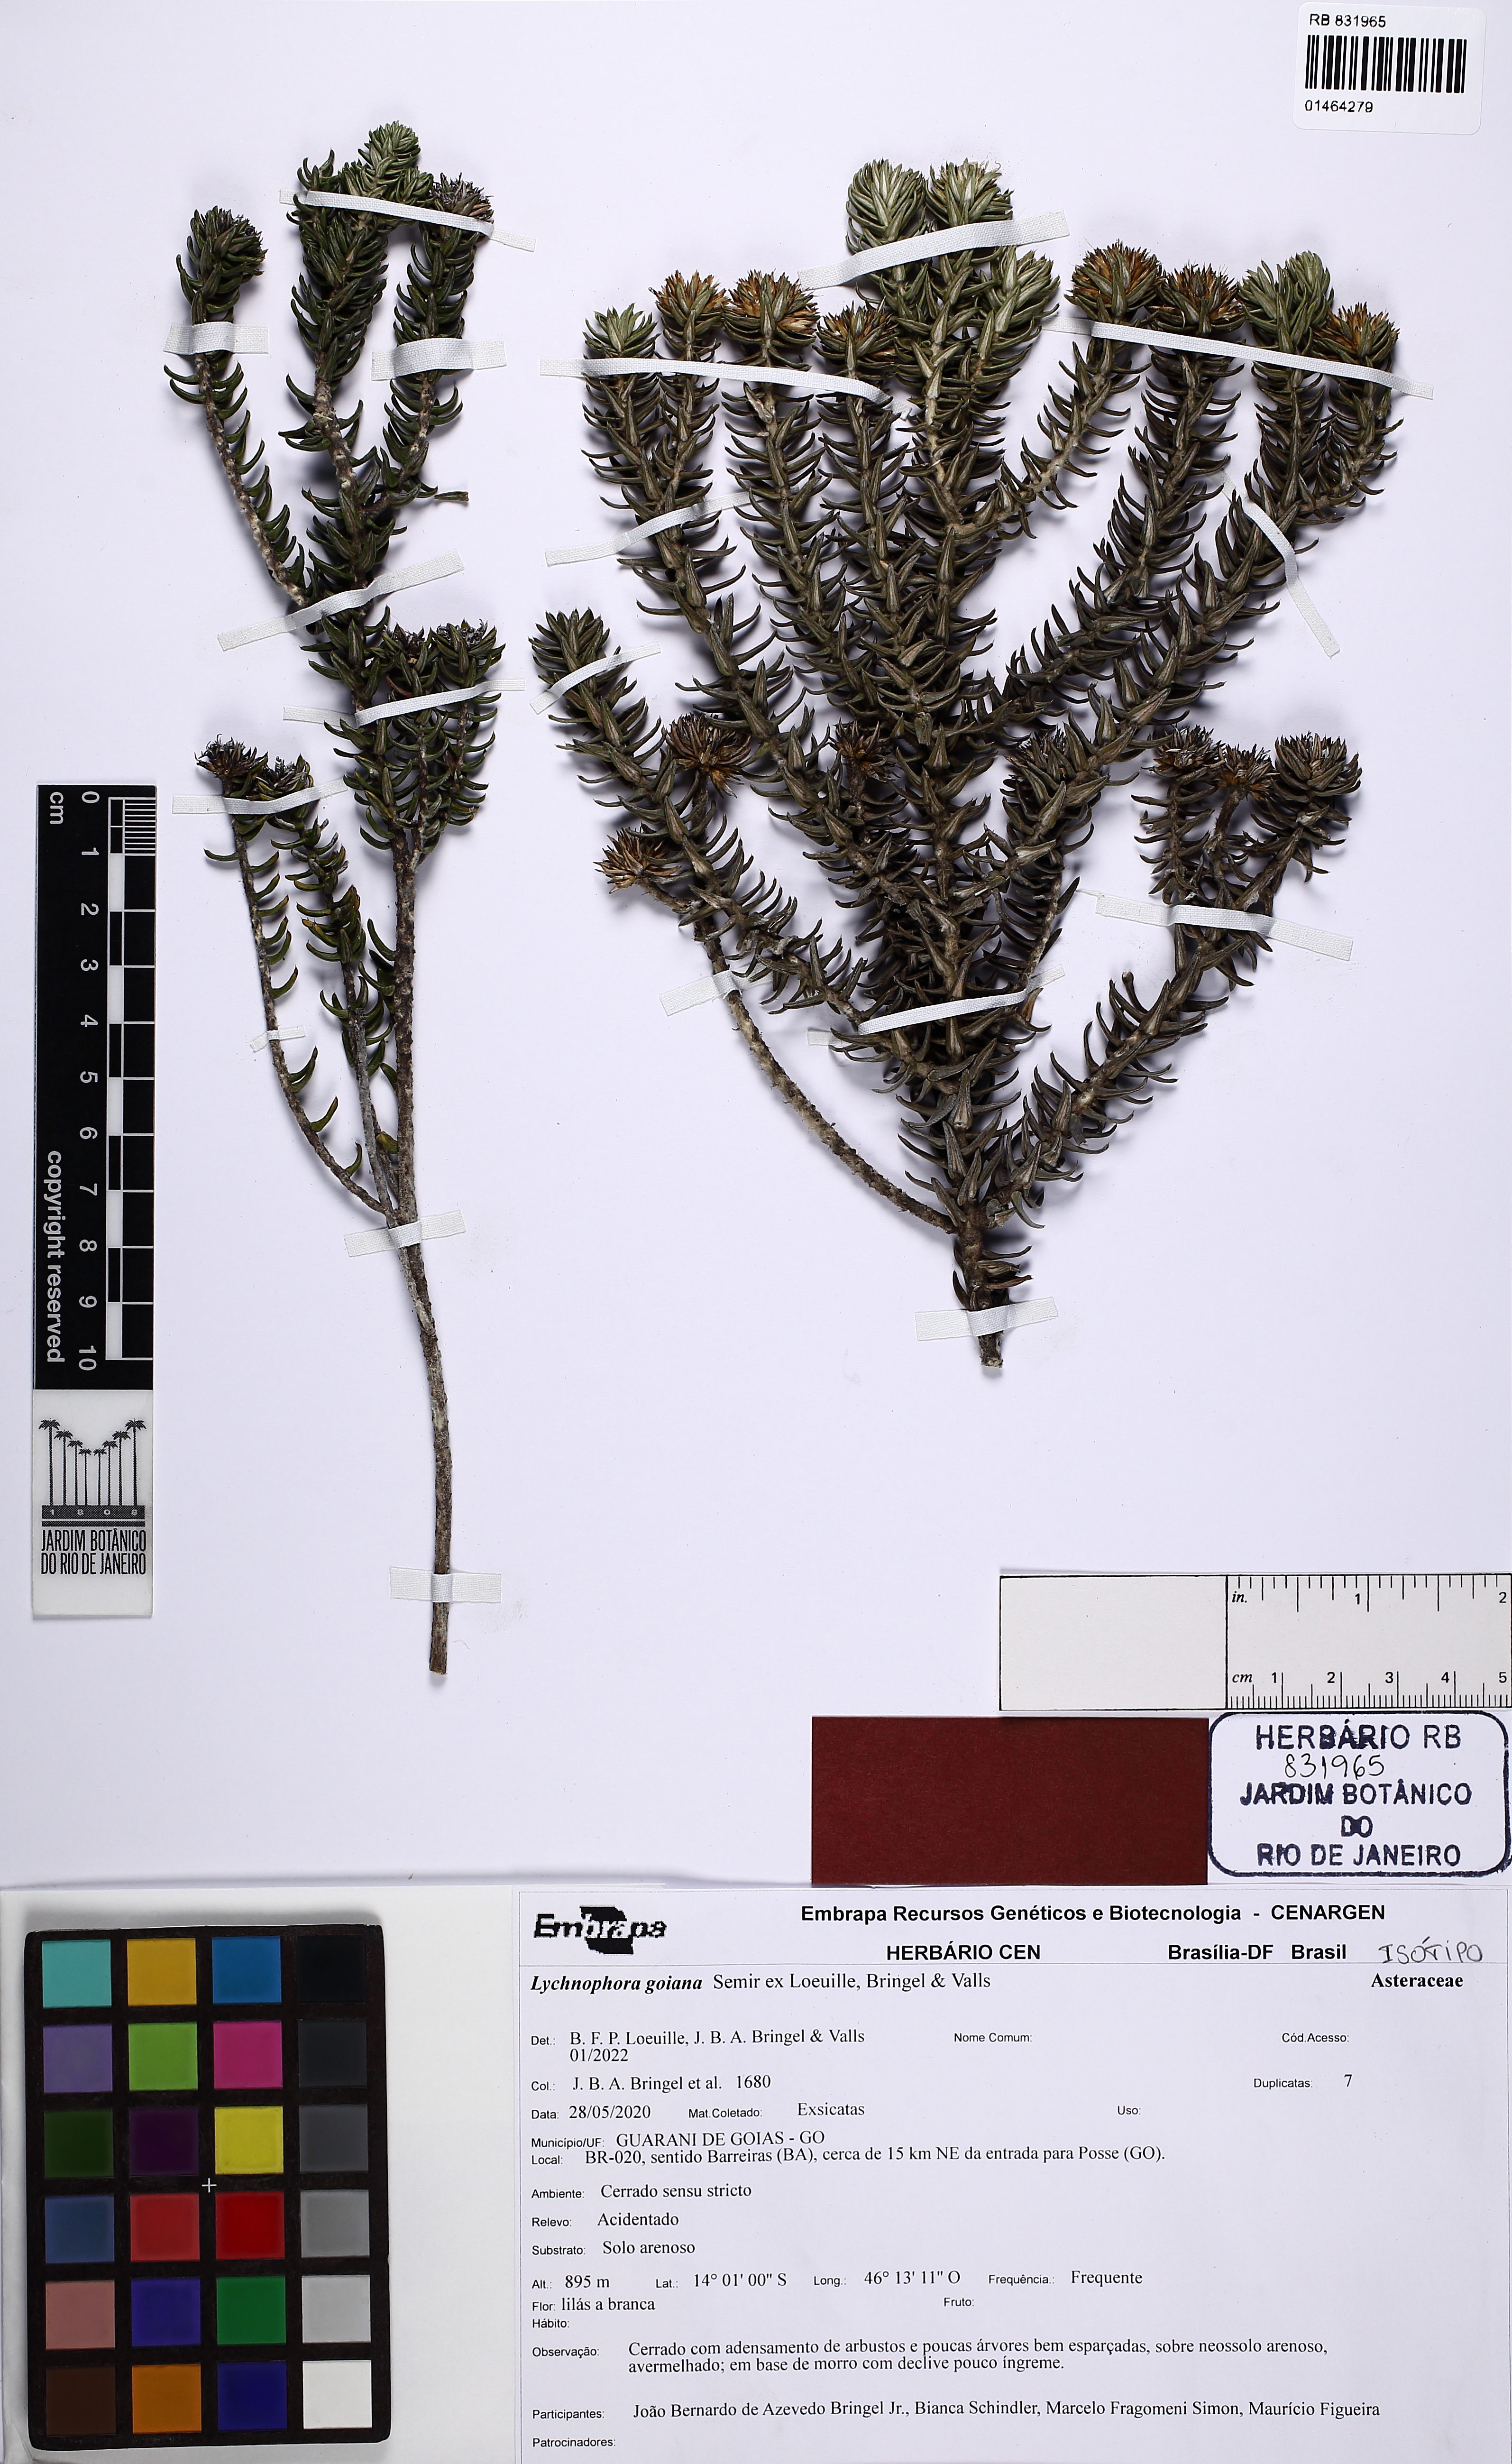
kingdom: Plantae
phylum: Tracheophyta
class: Magnoliopsida
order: Asterales
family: Asteraceae
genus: Lychnophora
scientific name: Lychnophora goiana
